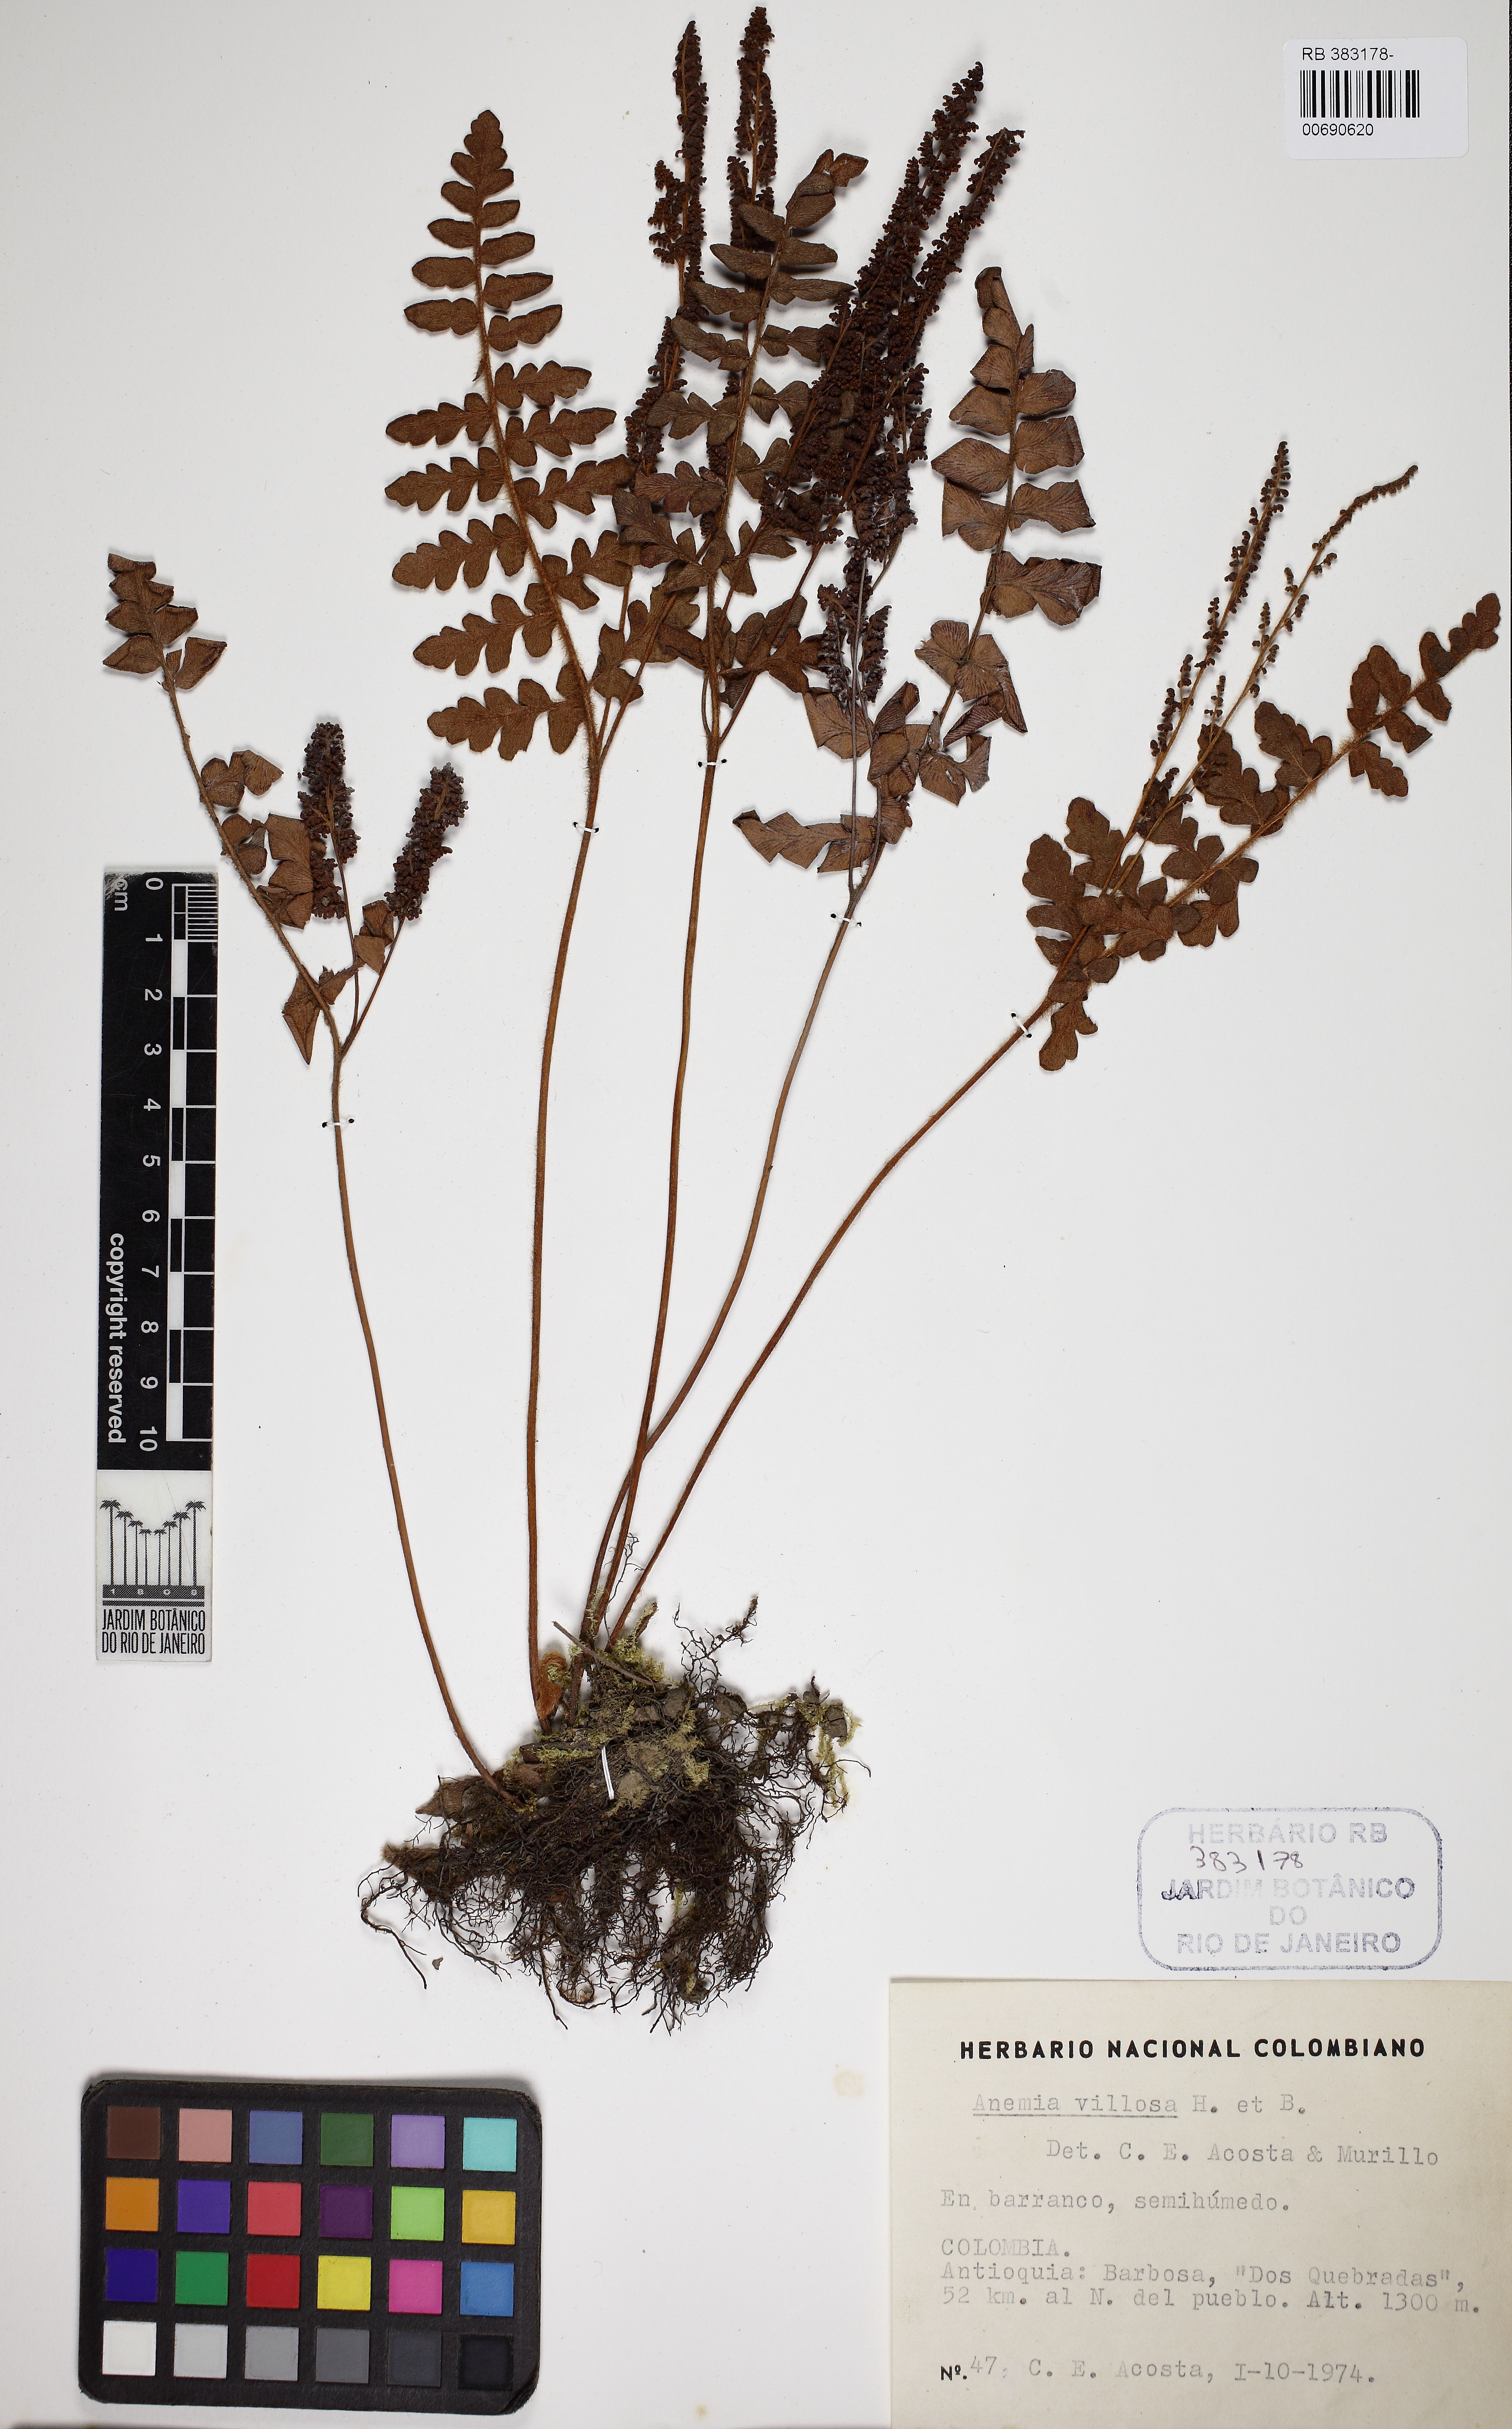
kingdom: Plantae
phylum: Tracheophyta
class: Polypodiopsida
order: Schizaeales
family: Anemiaceae
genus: Anemia
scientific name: Anemia villosa
